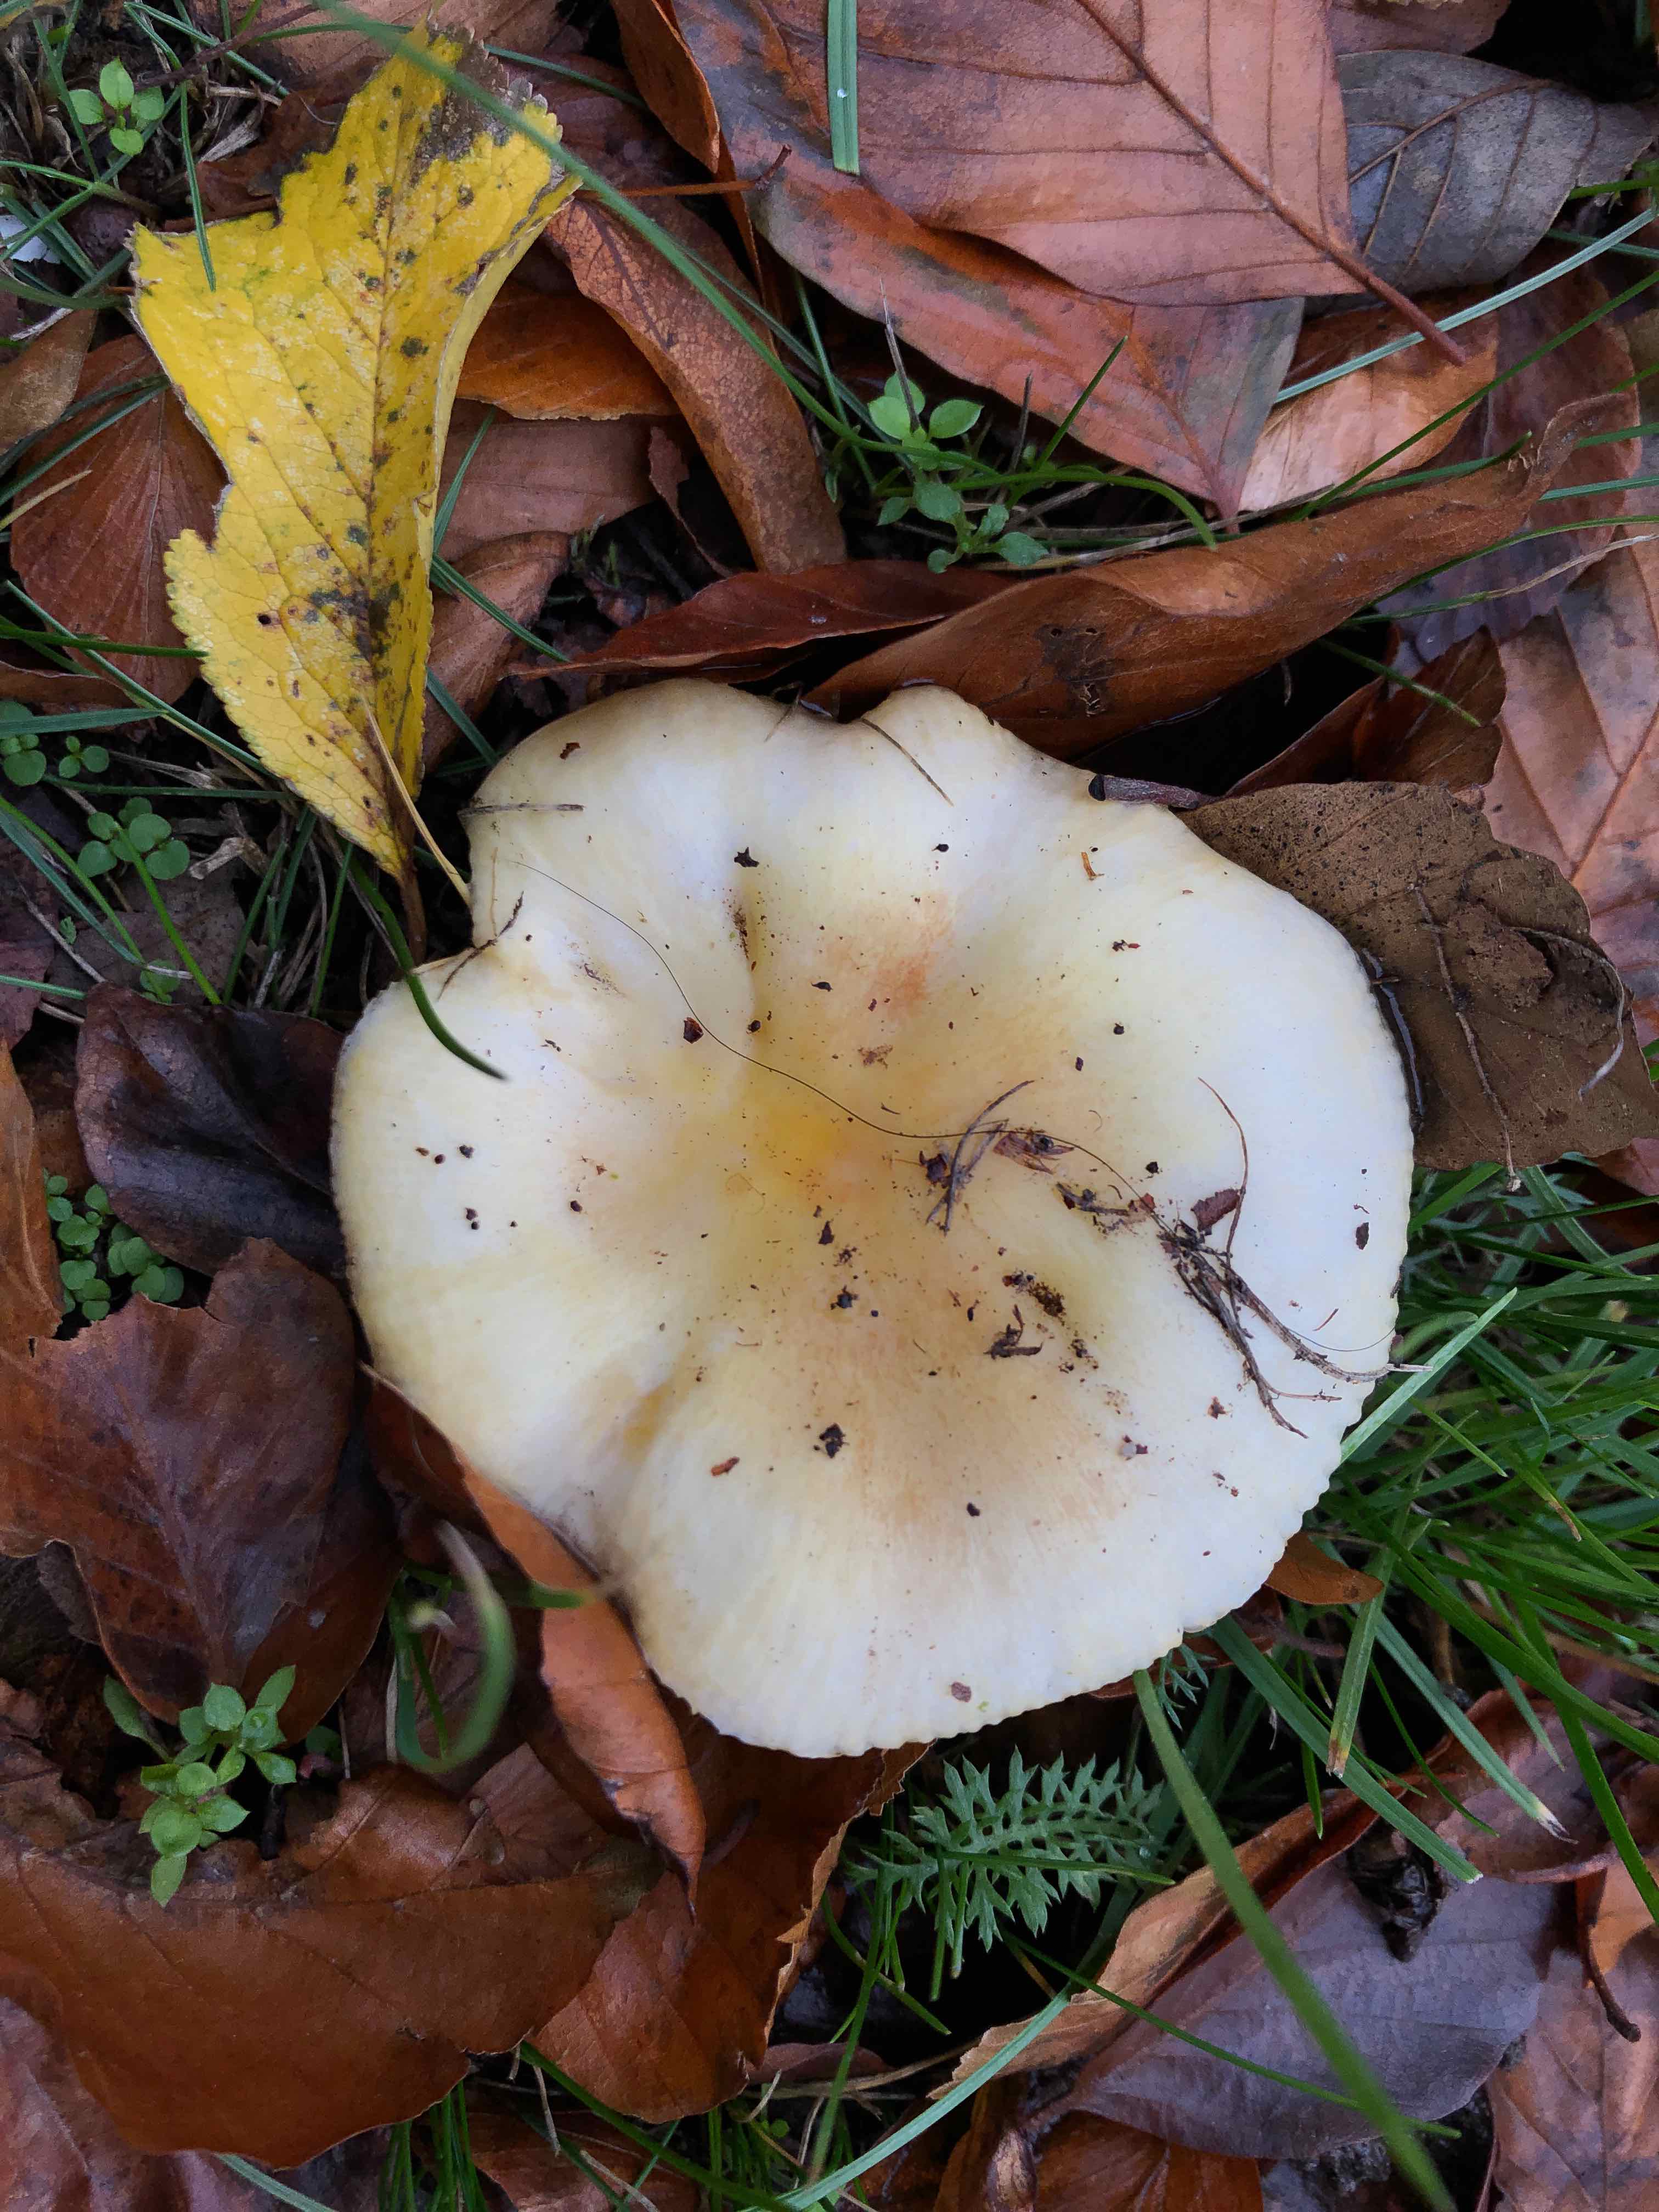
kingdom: Fungi
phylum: Basidiomycota
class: Agaricomycetes
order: Russulales
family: Russulaceae
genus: Russula
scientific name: Russula fellea
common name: galde-skørhat
